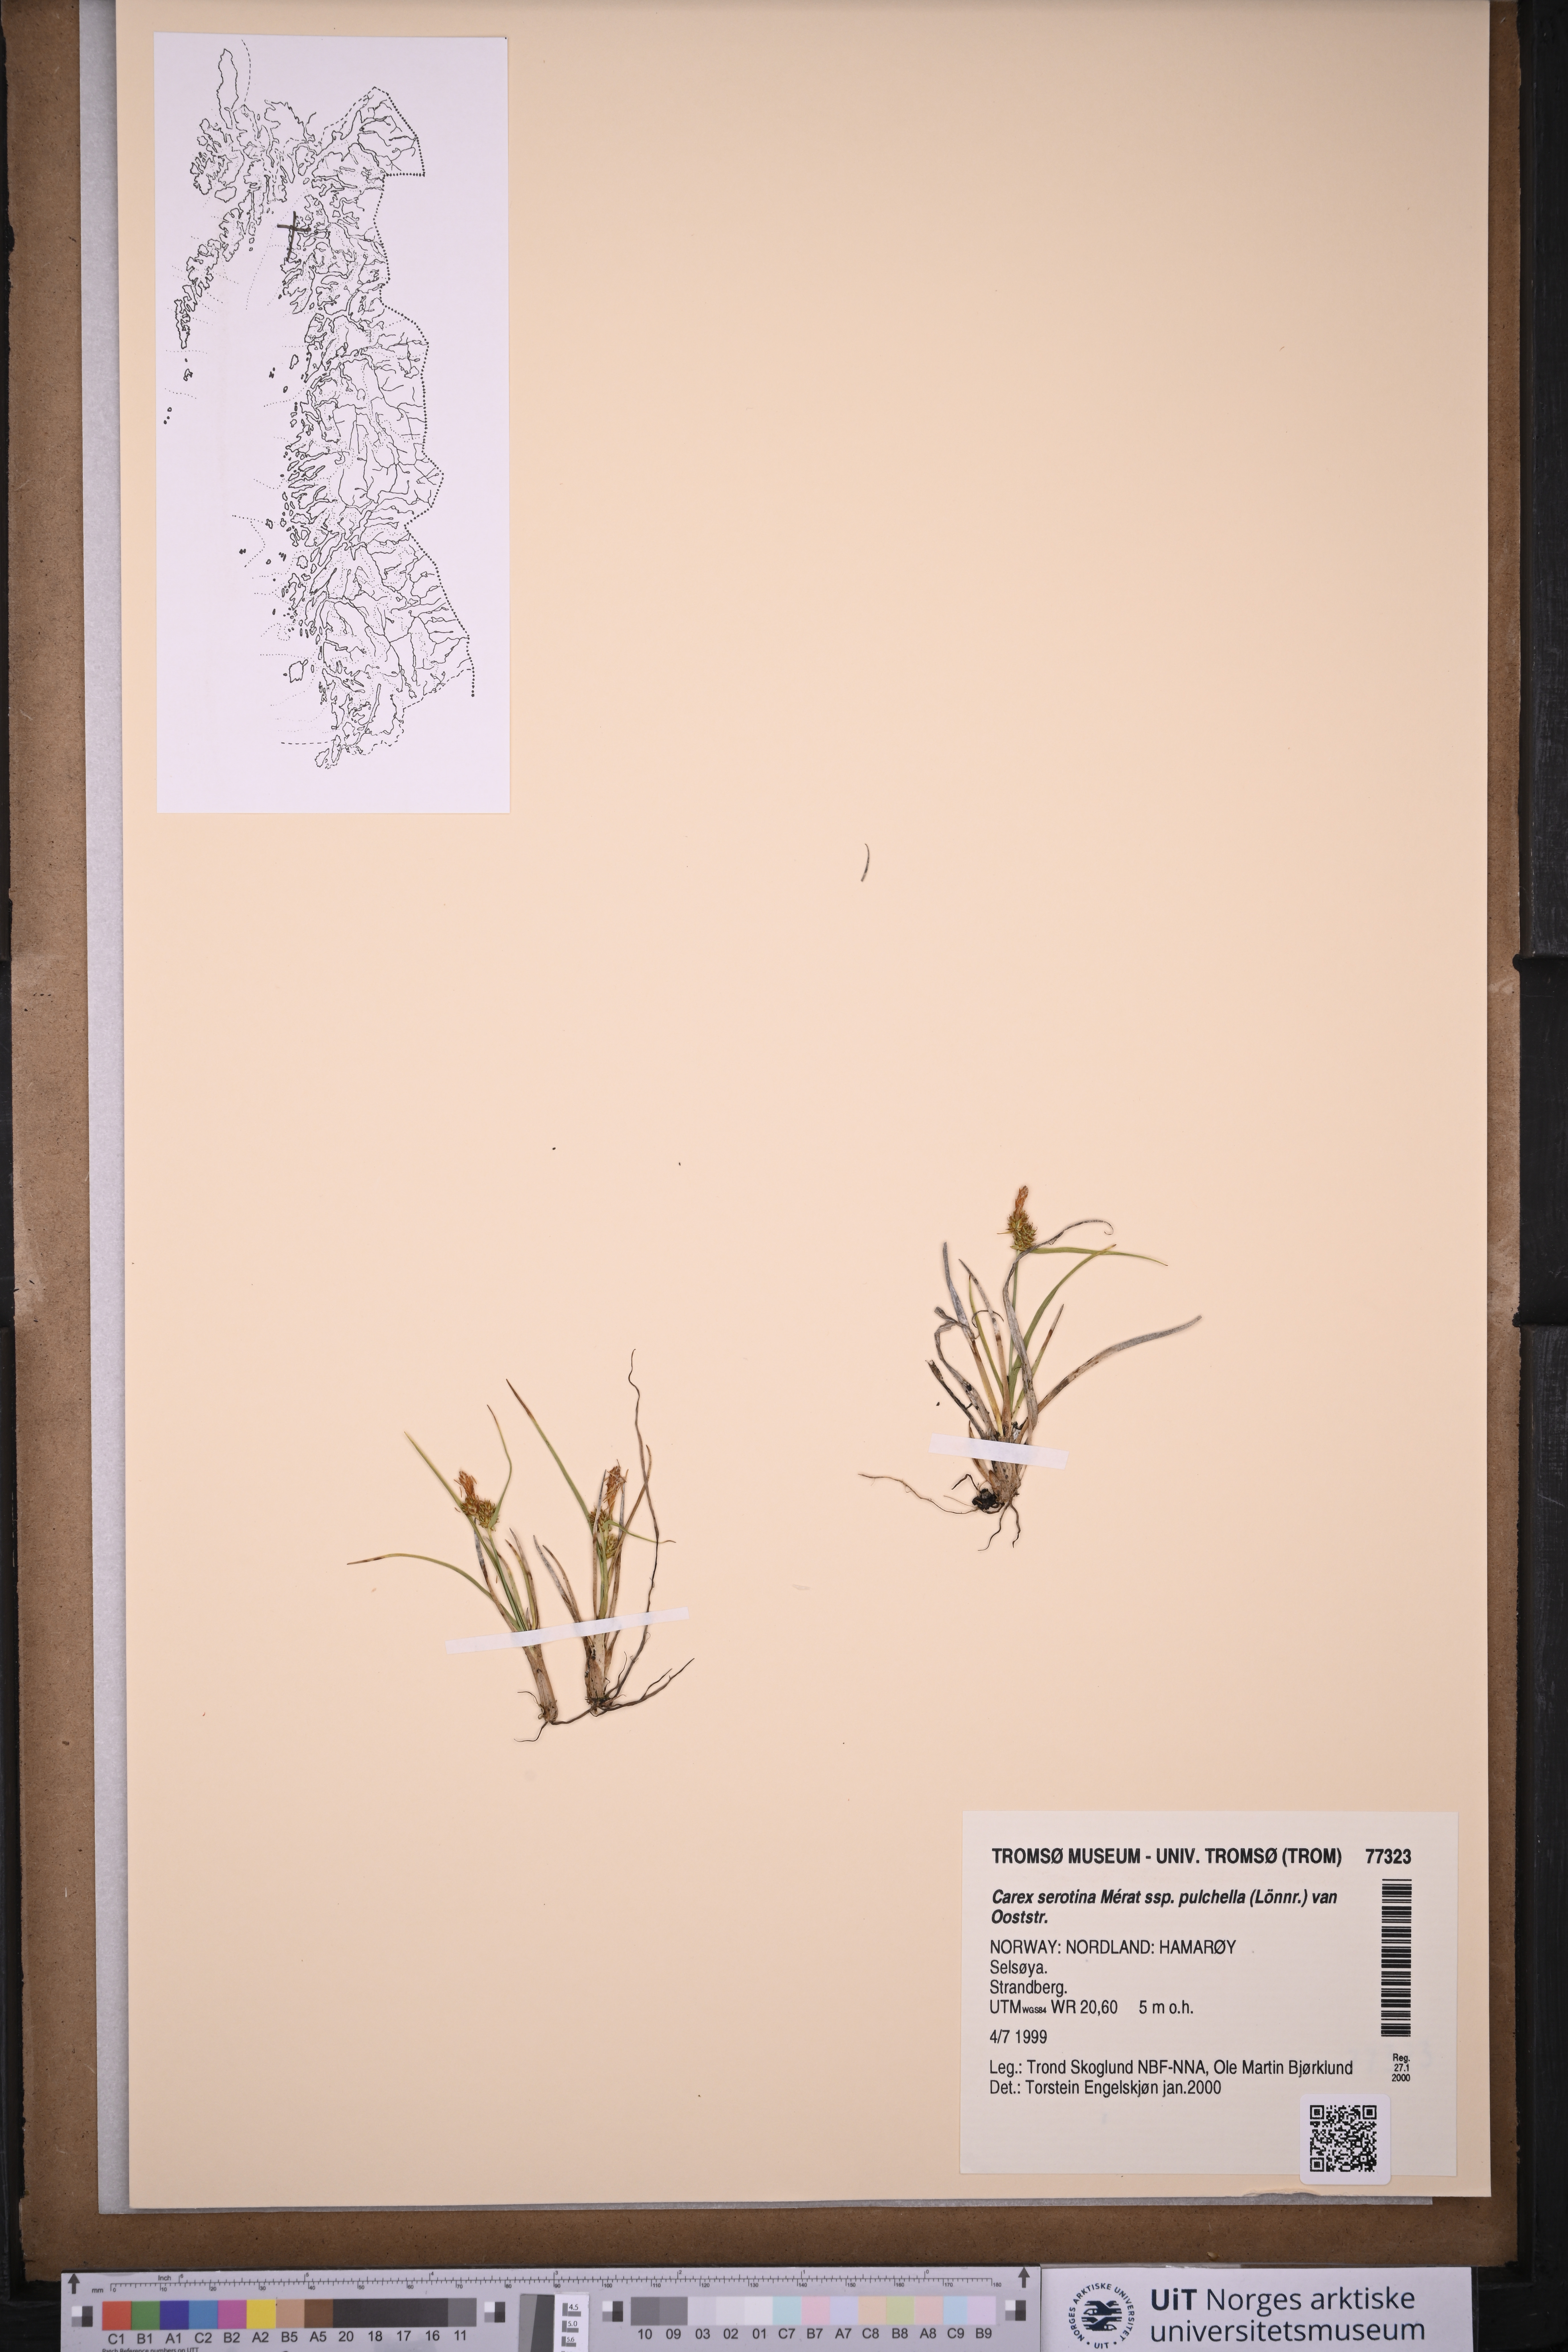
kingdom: Plantae
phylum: Tracheophyta
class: Liliopsida
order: Poales
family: Cyperaceae
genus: Carex
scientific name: Carex oederi
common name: Common & small-fruited yellow-sedge
